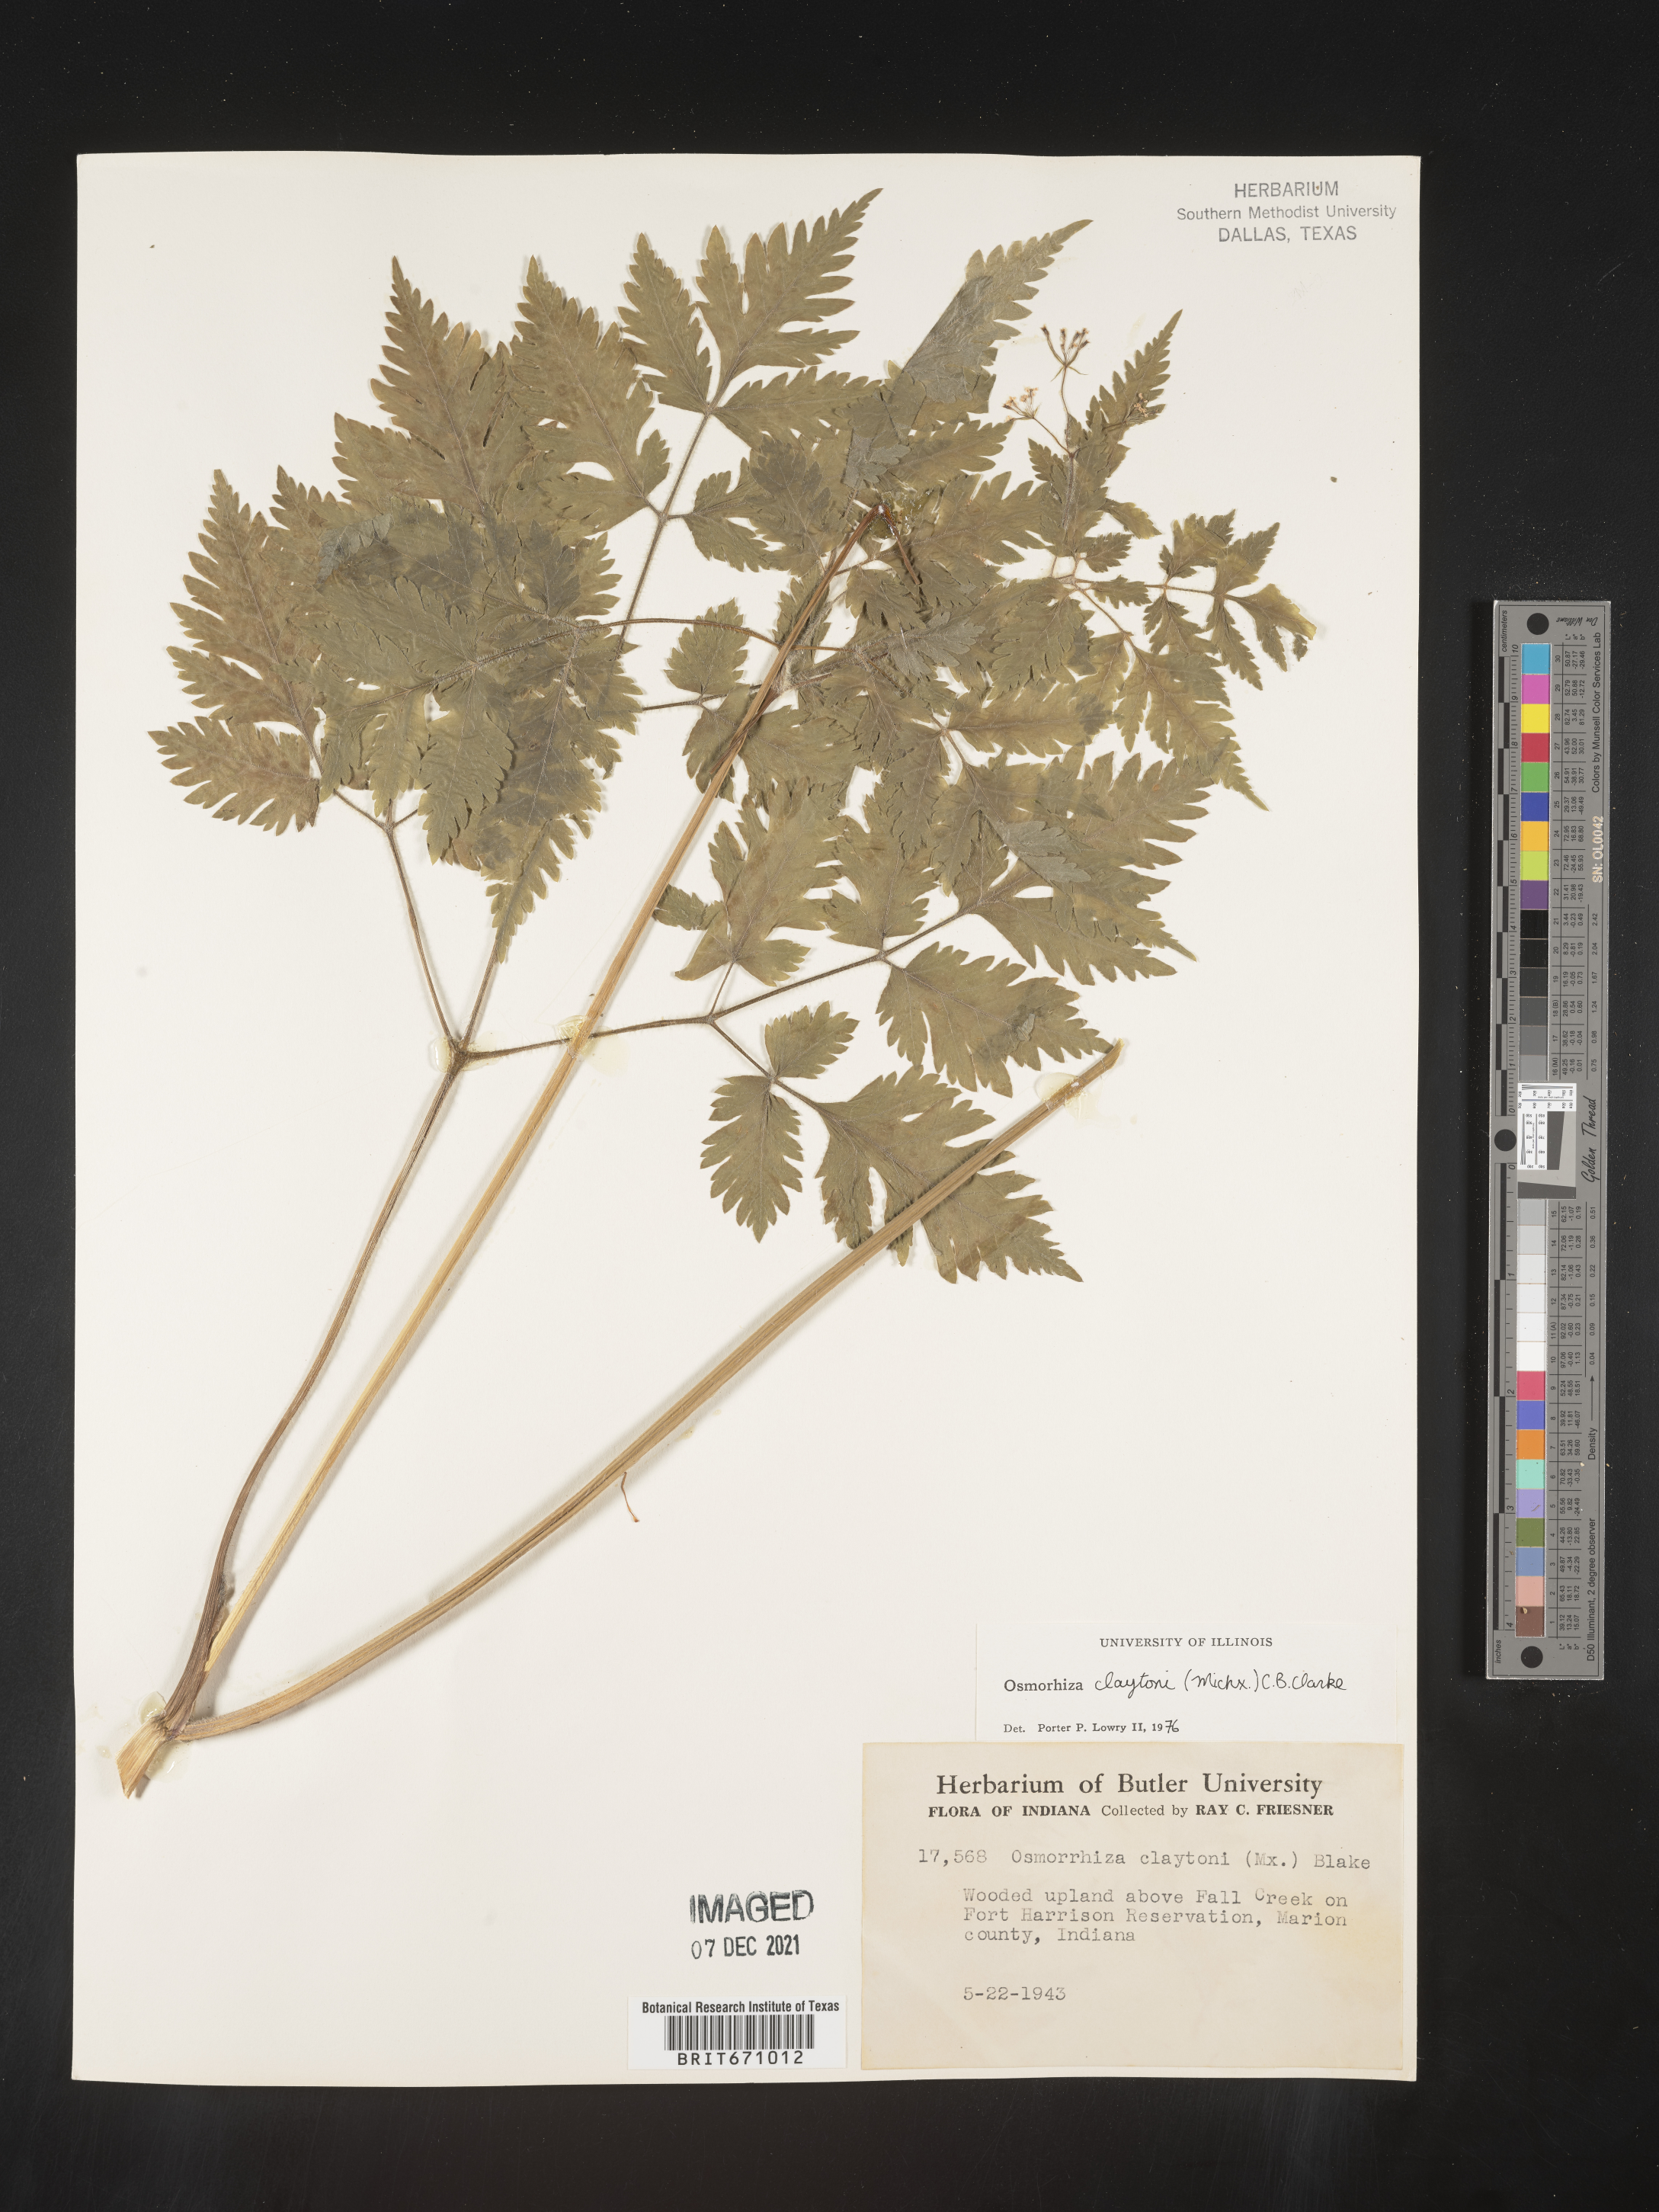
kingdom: Plantae
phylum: Tracheophyta
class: Magnoliopsida
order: Apiales
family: Apiaceae
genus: Osmorhiza
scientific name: Osmorhiza claytonii
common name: Hairy sweet cicely
